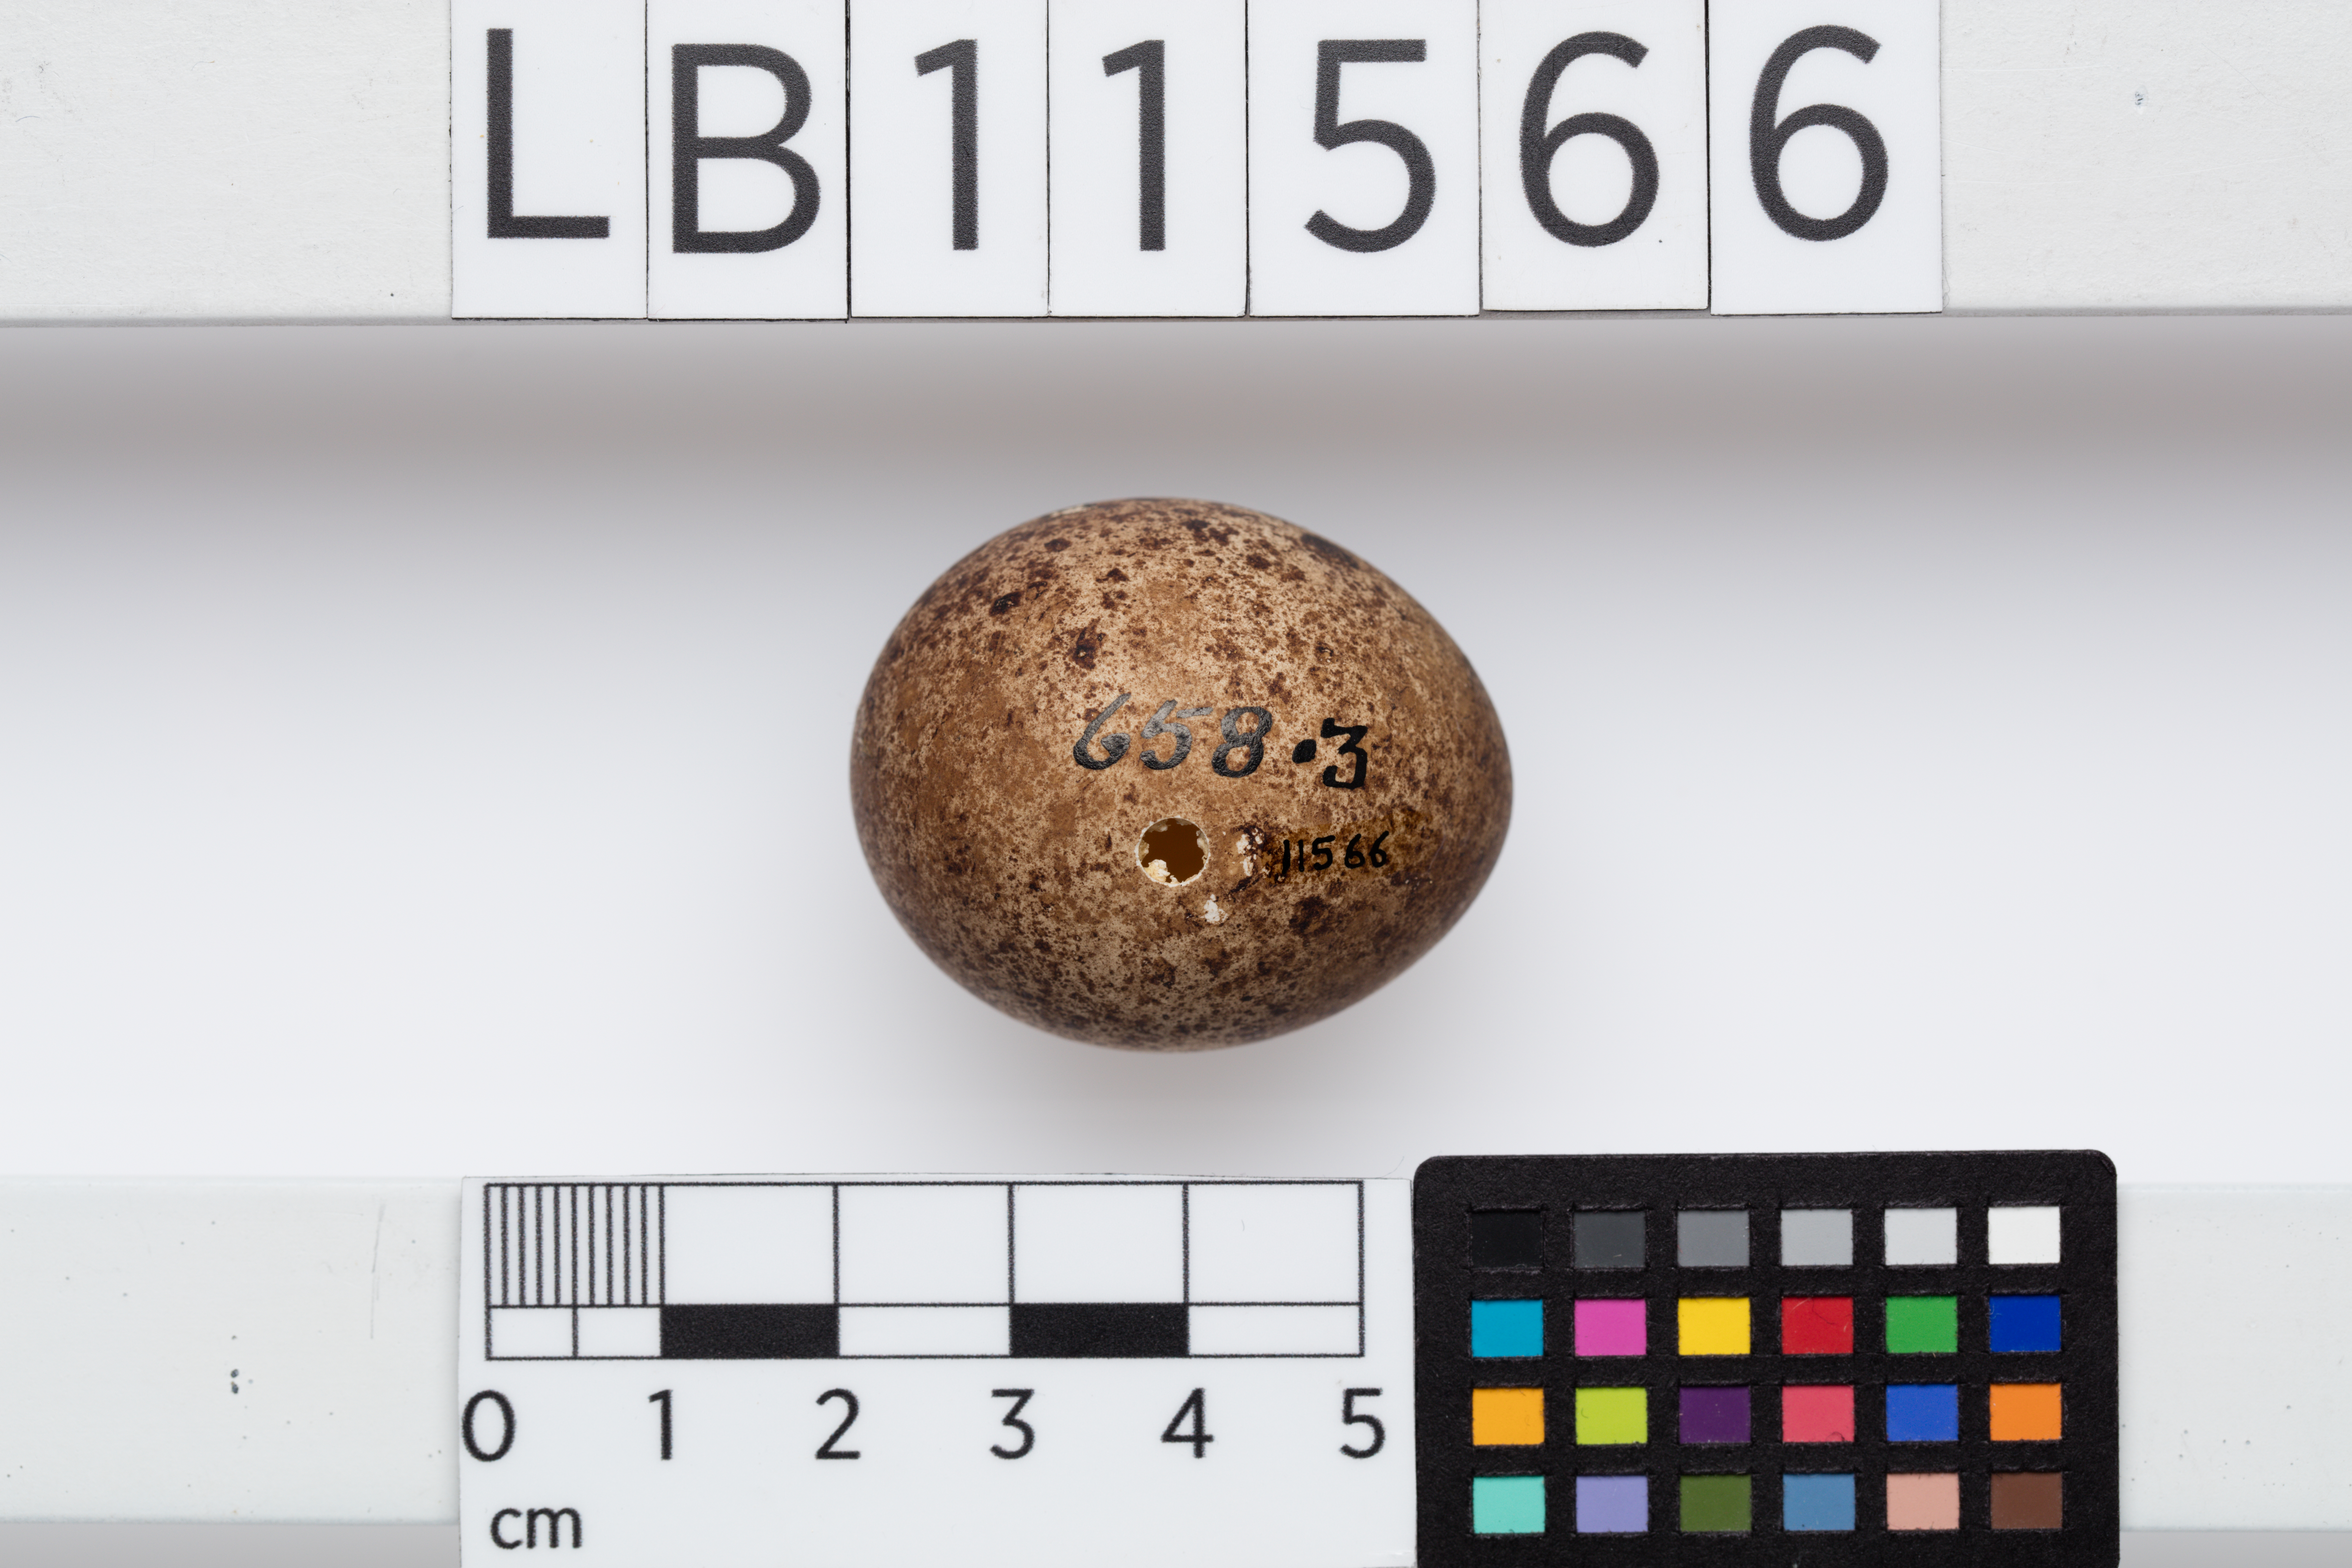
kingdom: Animalia
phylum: Chordata
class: Aves
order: Falconiformes
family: Falconidae
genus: Falco
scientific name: Falco subbuteo
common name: Eurasian hobby
